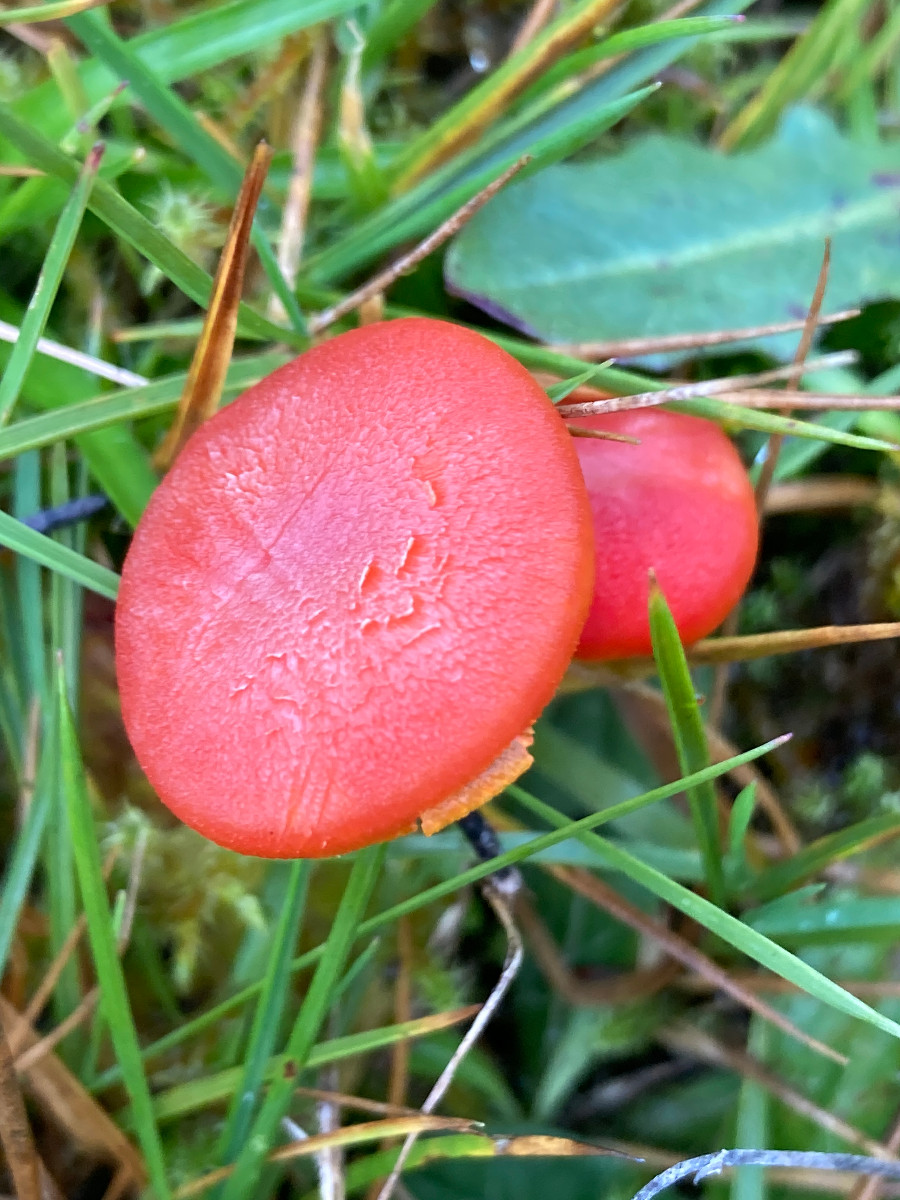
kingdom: Fungi
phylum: Basidiomycota
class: Agaricomycetes
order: Agaricales
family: Hygrophoraceae
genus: Hygrocybe
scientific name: Hygrocybe miniata
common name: mønje-vokshat
